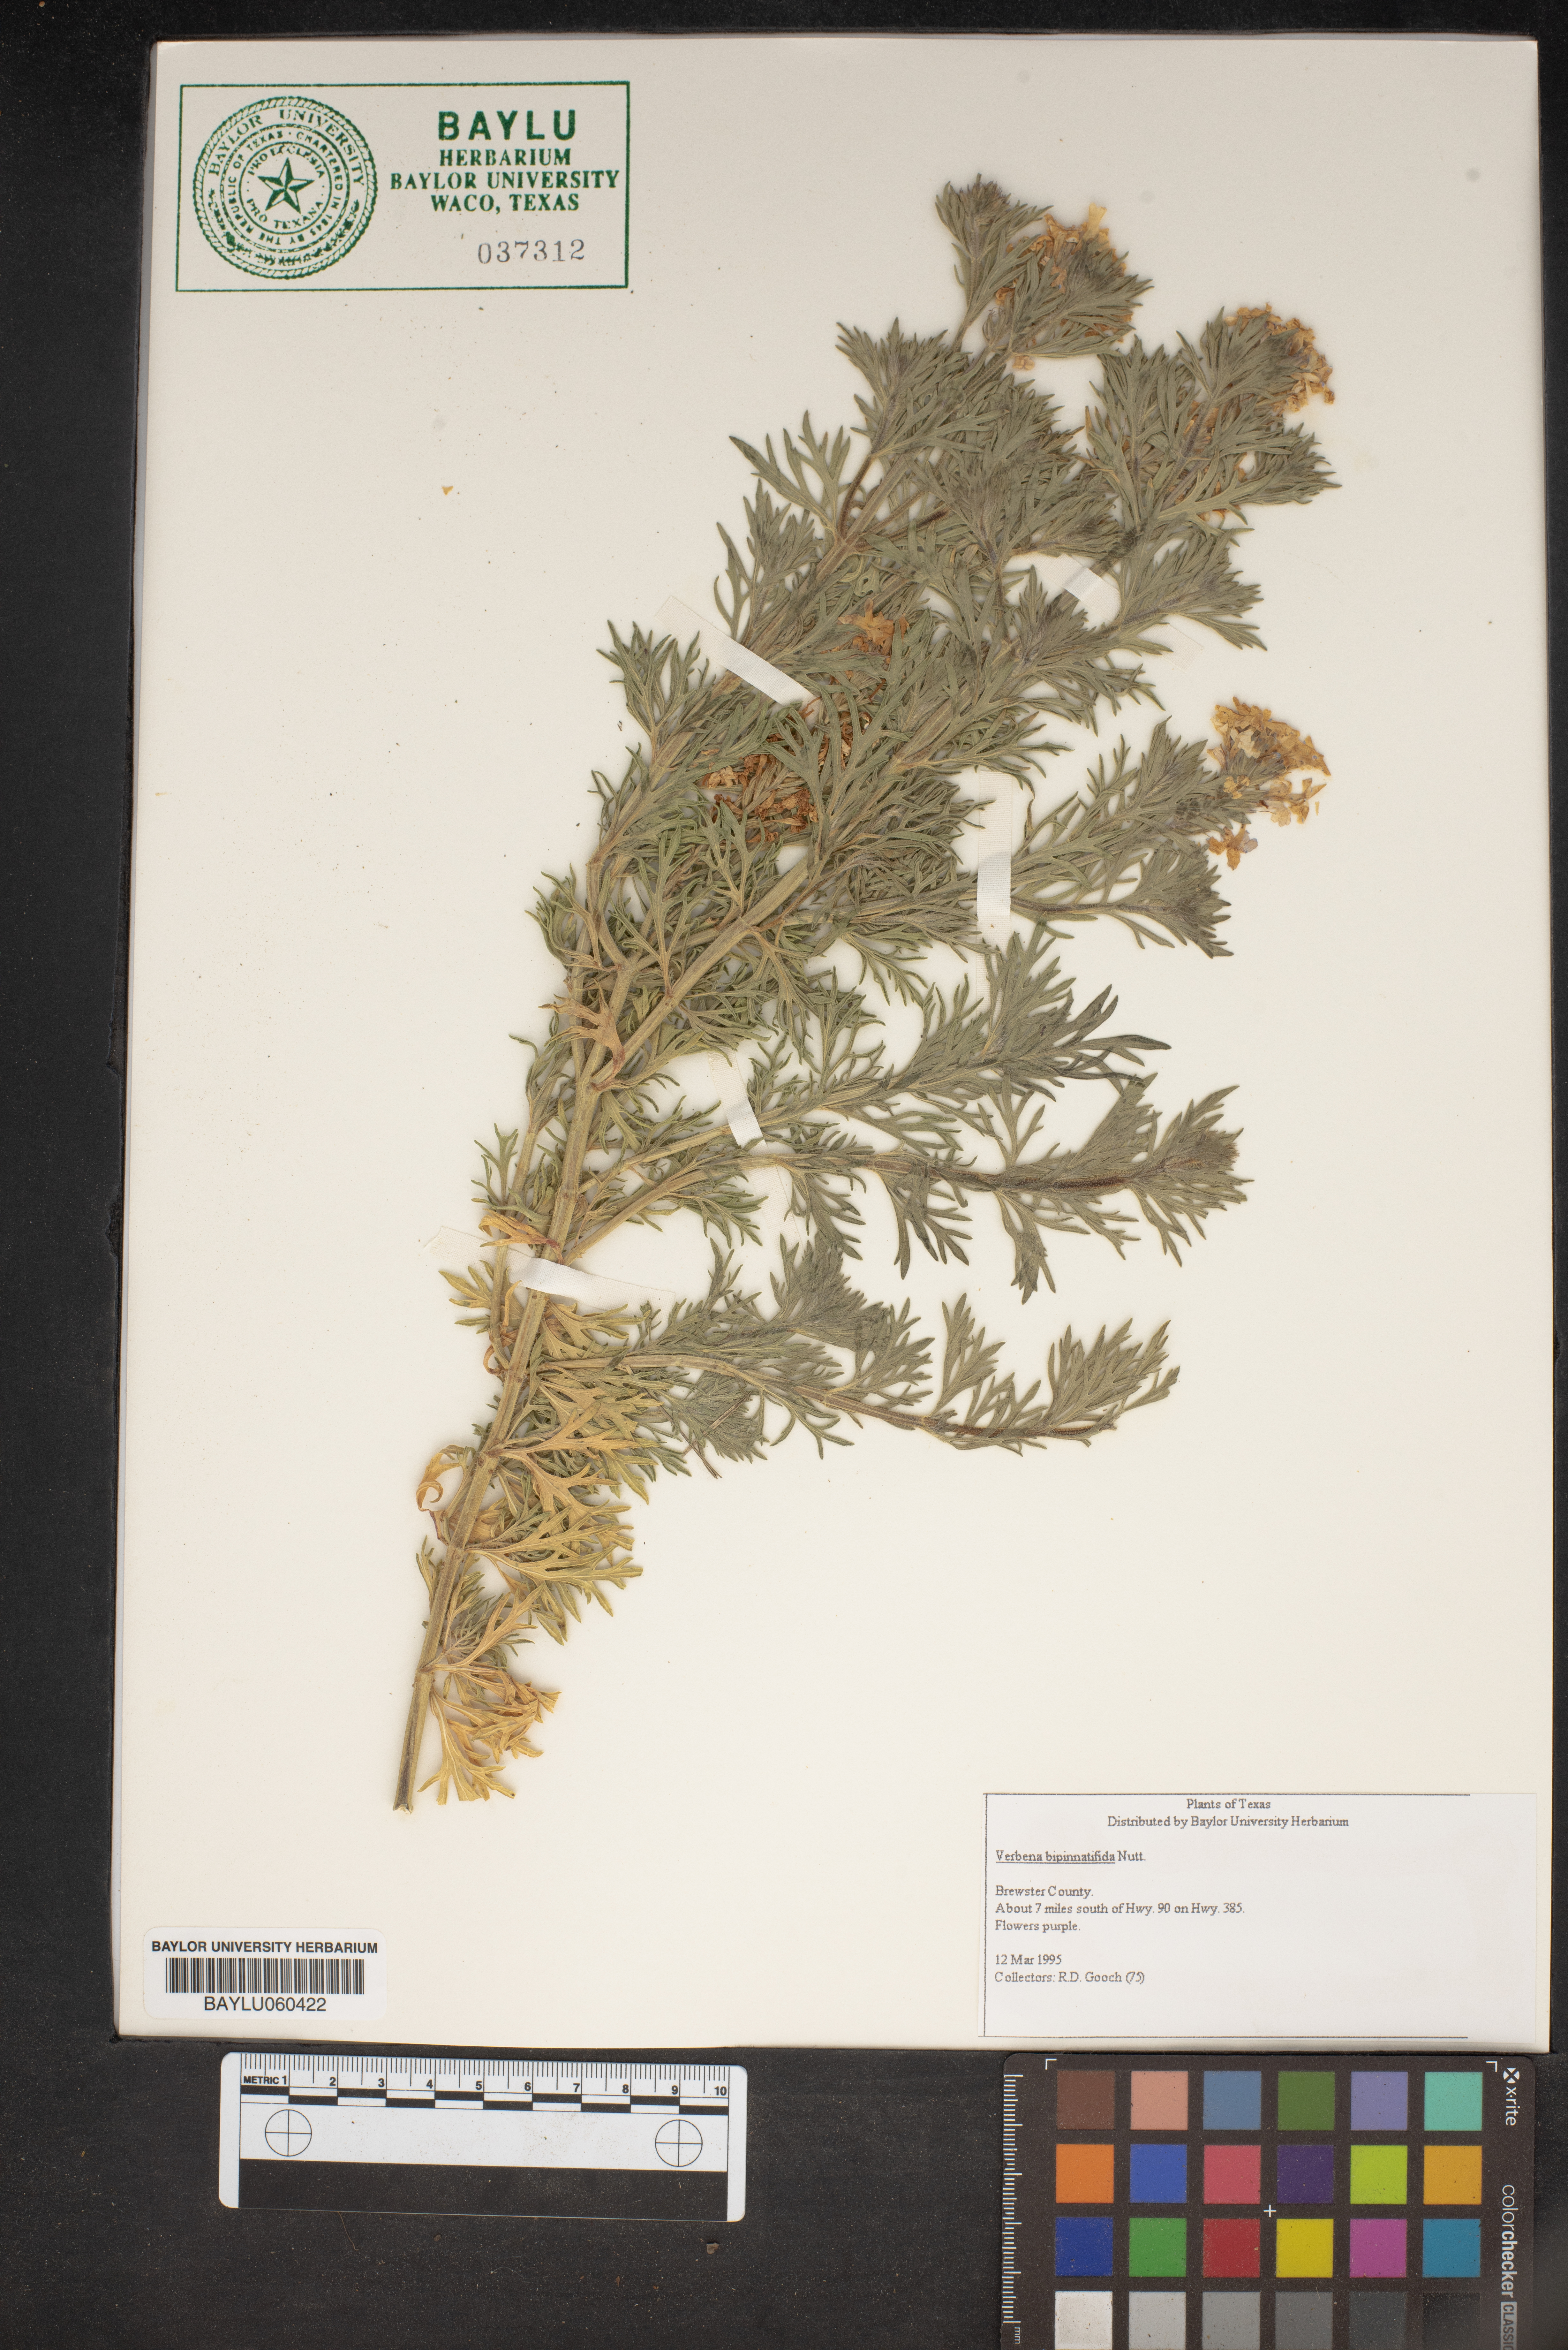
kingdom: Plantae
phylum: Tracheophyta
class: Magnoliopsida
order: Lamiales
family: Verbenaceae
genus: Verbena
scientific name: Verbena bipinnatifida
